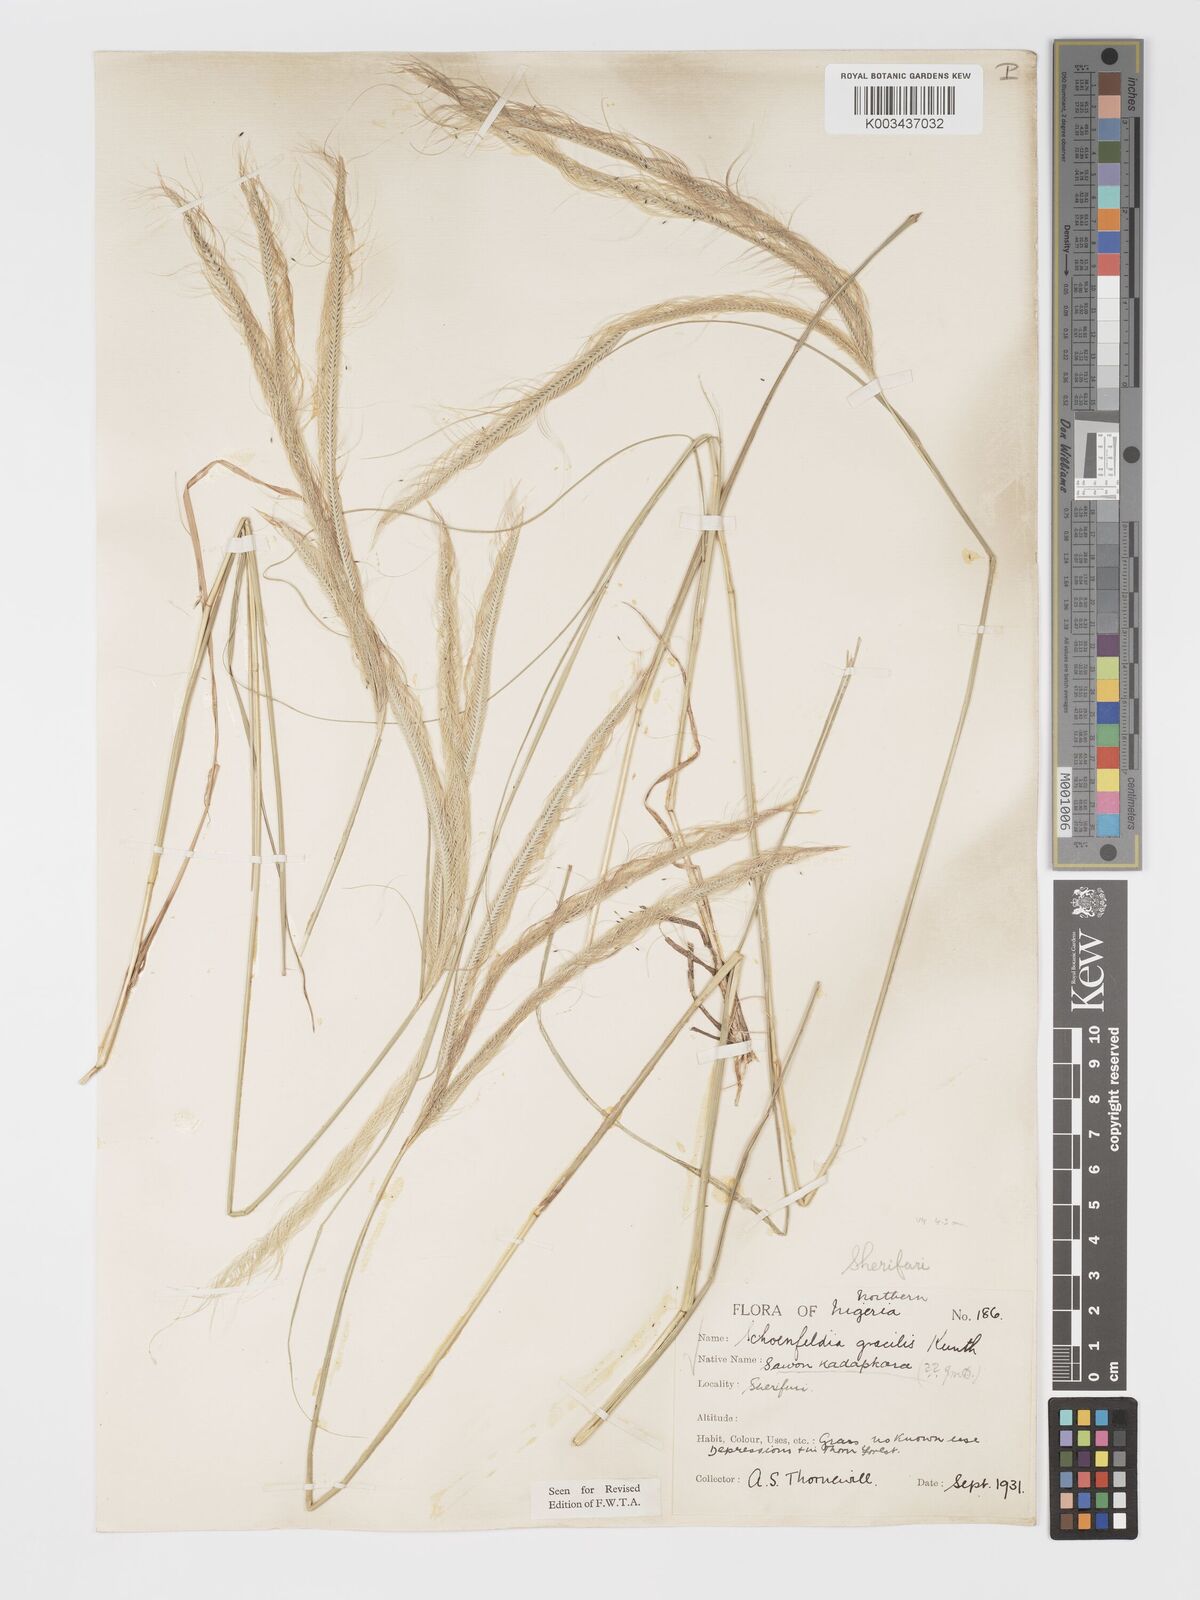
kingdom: Plantae
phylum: Tracheophyta
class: Liliopsida
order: Poales
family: Poaceae
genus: Schoenefeldia
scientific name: Schoenefeldia gracilis
